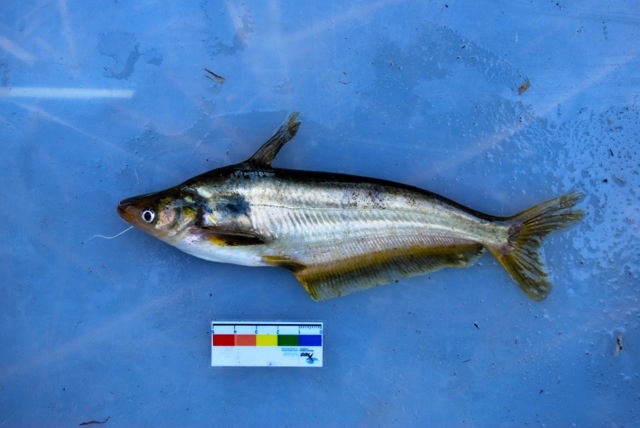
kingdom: Animalia
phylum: Chordata
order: Siluriformes
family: Schilbeidae
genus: Schilbe
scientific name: Schilbe intermedius
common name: Silver catfish
